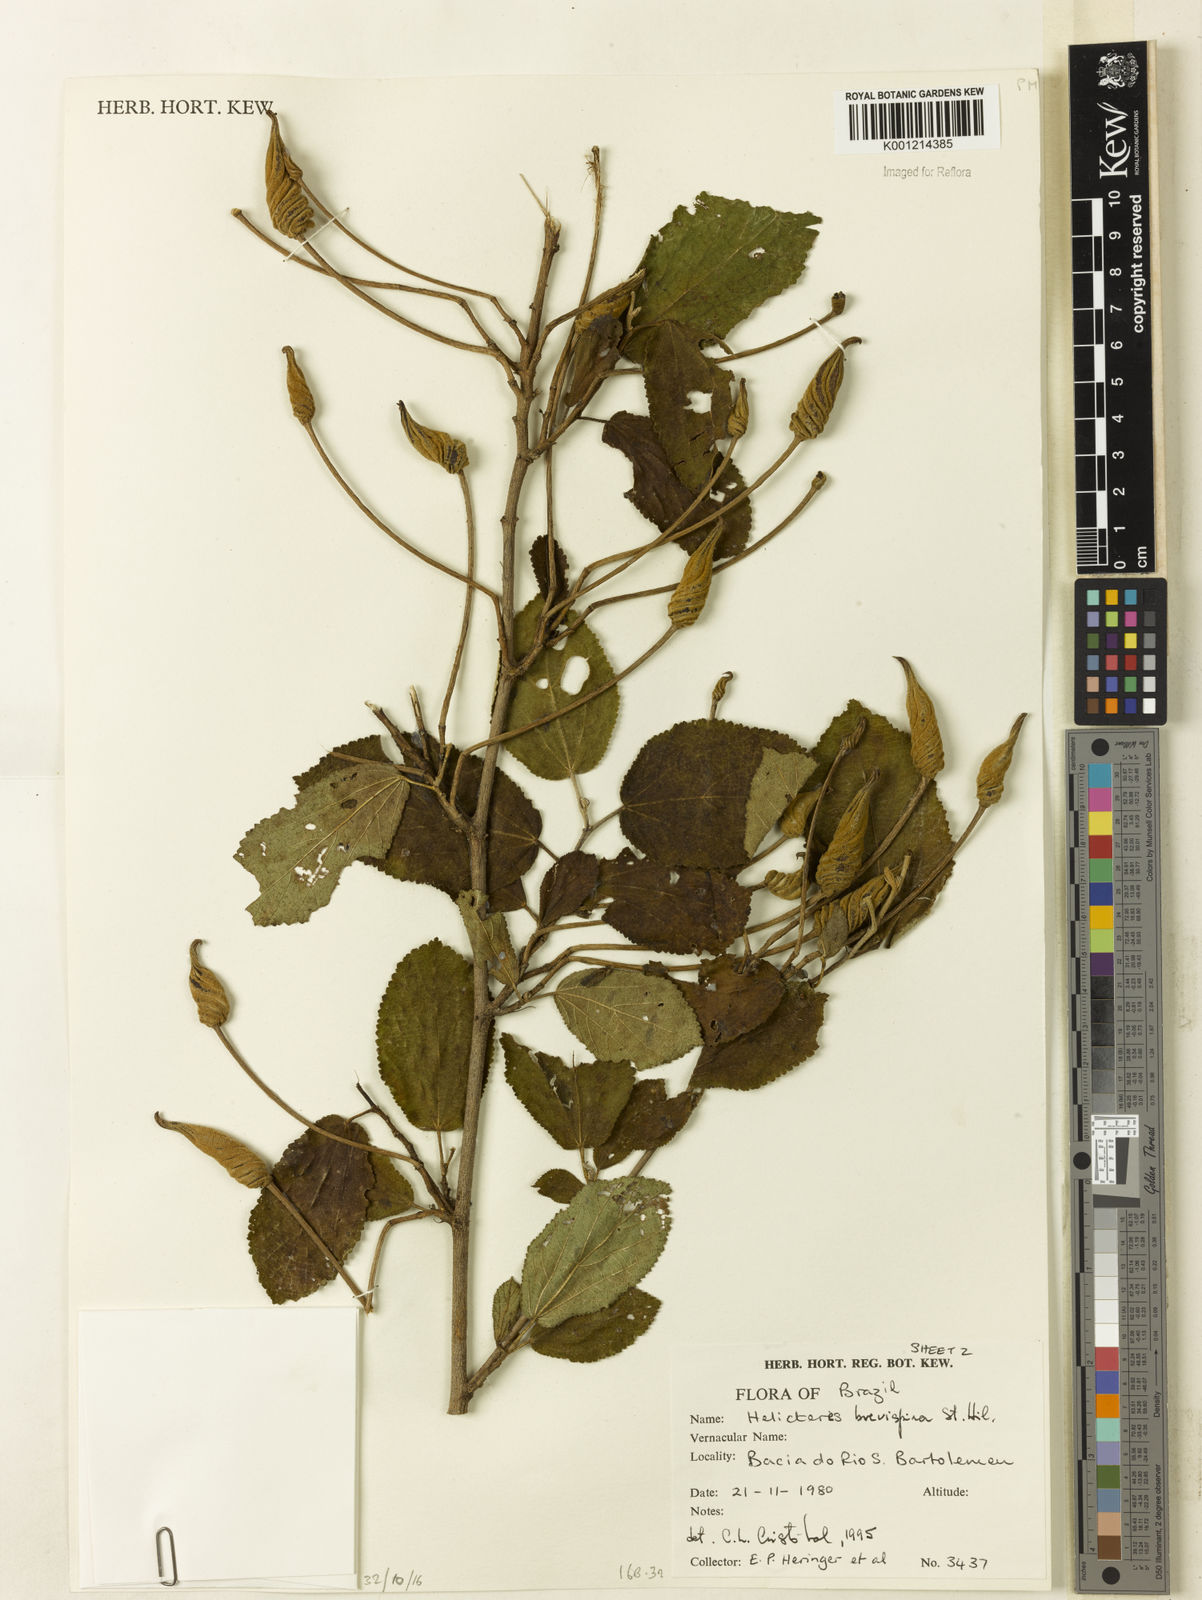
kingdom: Plantae
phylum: Tracheophyta
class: Magnoliopsida
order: Malvales
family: Malvaceae
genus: Helicteres
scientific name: Helicteres
